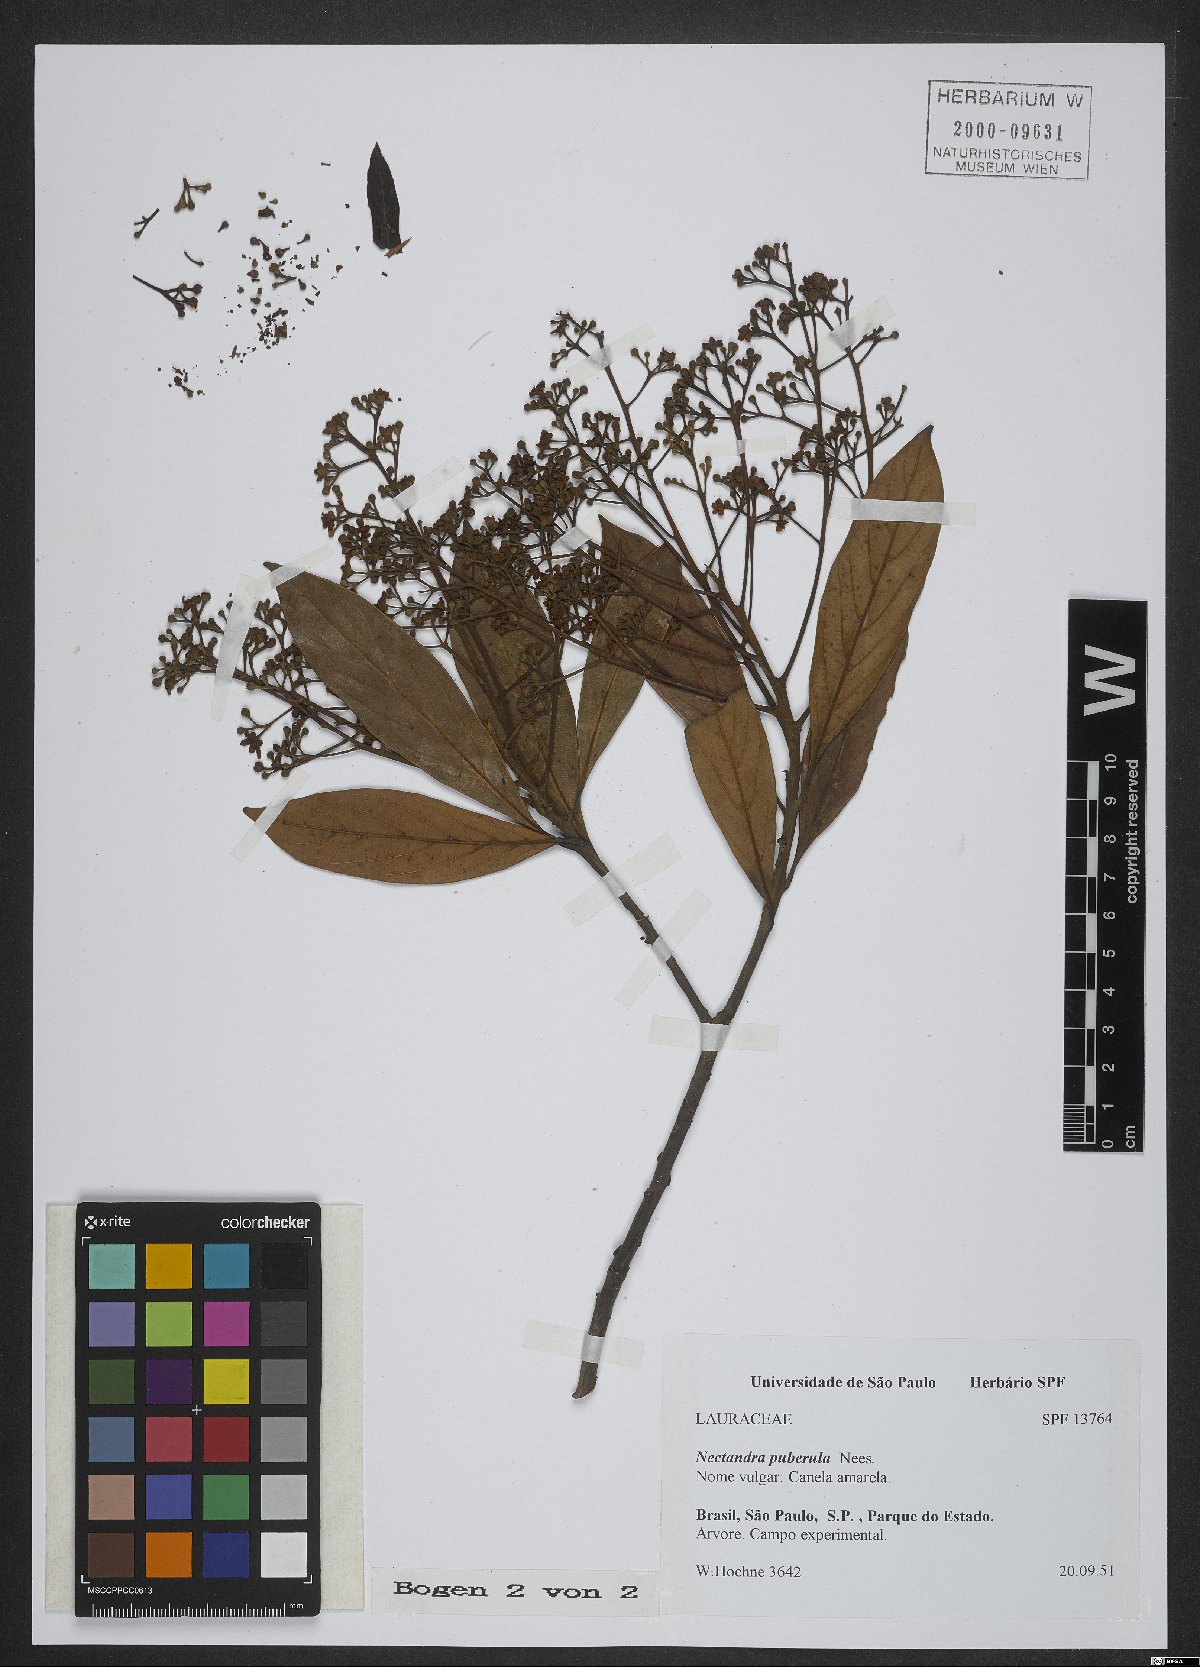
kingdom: Plantae
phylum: Tracheophyta
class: Magnoliopsida
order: Laurales
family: Lauraceae
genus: Nectandra
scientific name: Nectandra puberula
